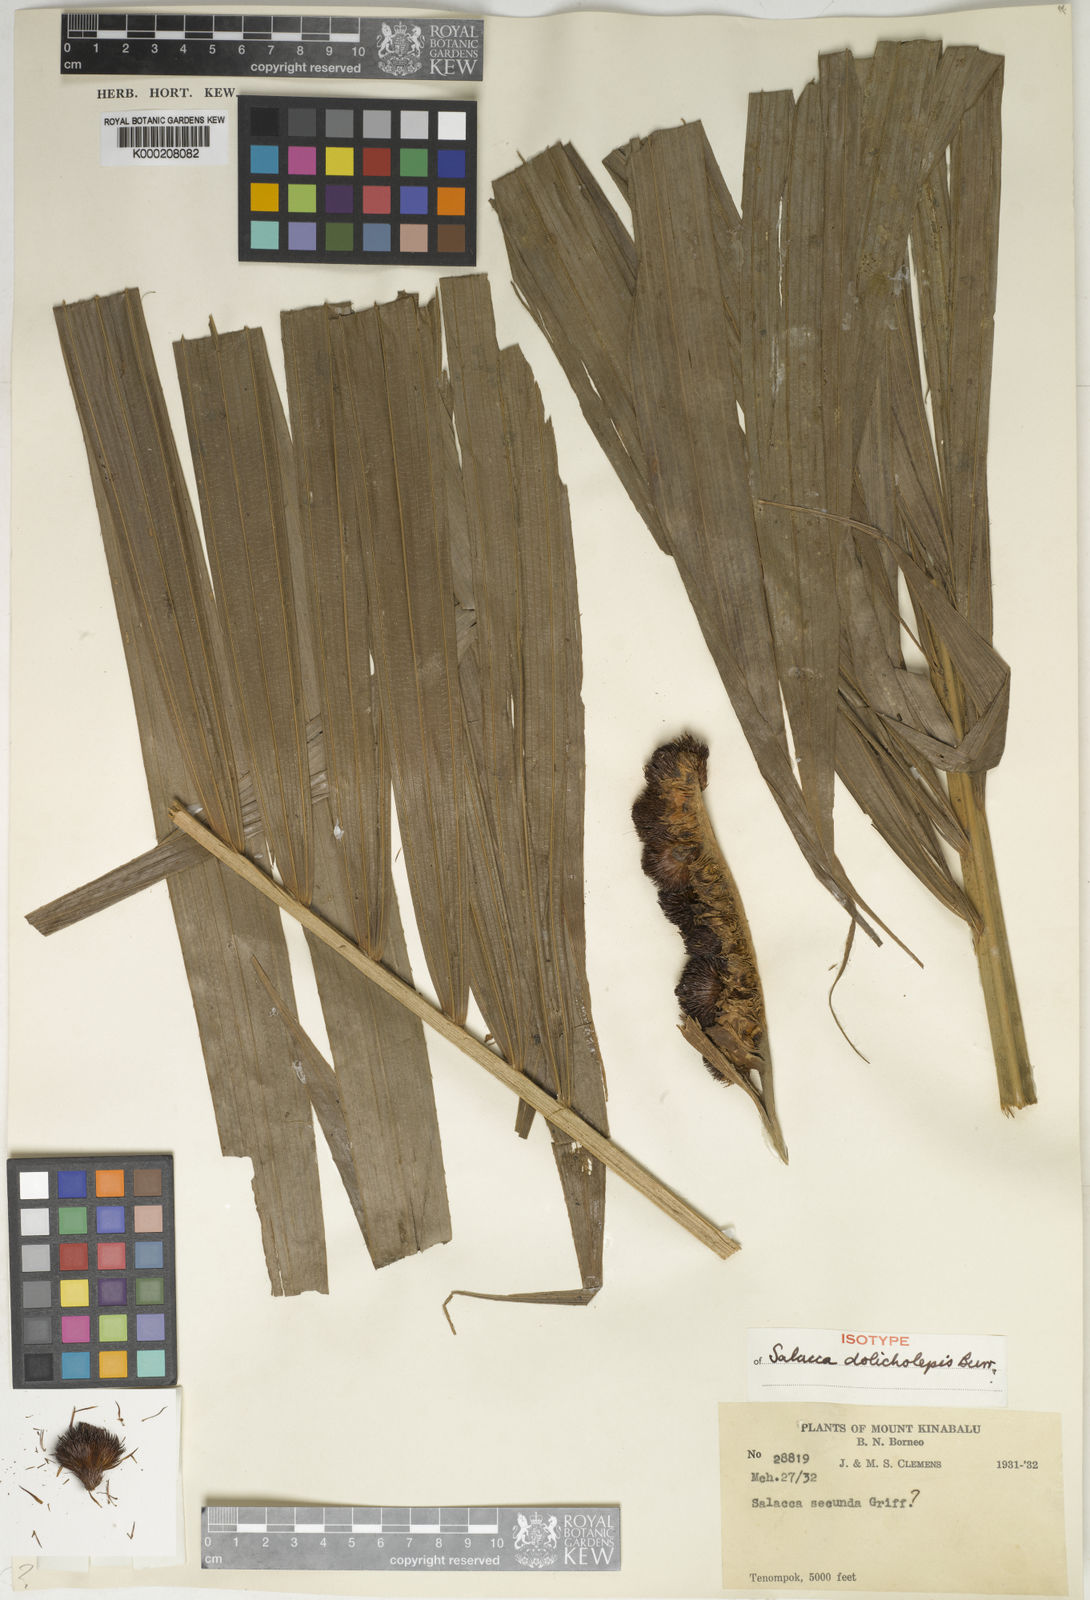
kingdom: Plantae
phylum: Tracheophyta
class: Liliopsida
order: Arecales
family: Arecaceae
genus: Salacca
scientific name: Salacca dolicholepis
